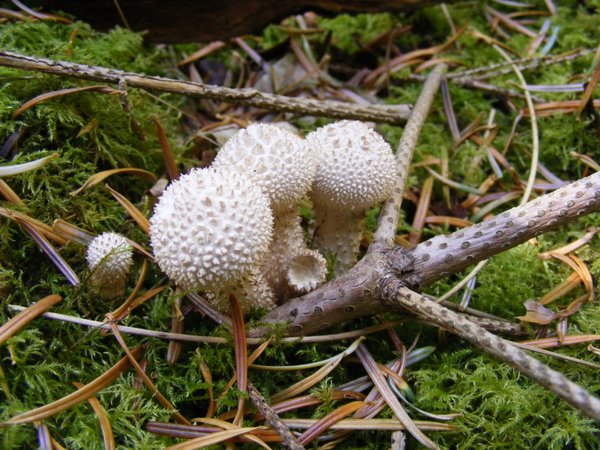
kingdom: Fungi
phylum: Basidiomycota
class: Agaricomycetes
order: Agaricales
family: Lycoperdaceae
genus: Lycoperdon
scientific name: Lycoperdon perlatum
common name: krystal-støvbold
